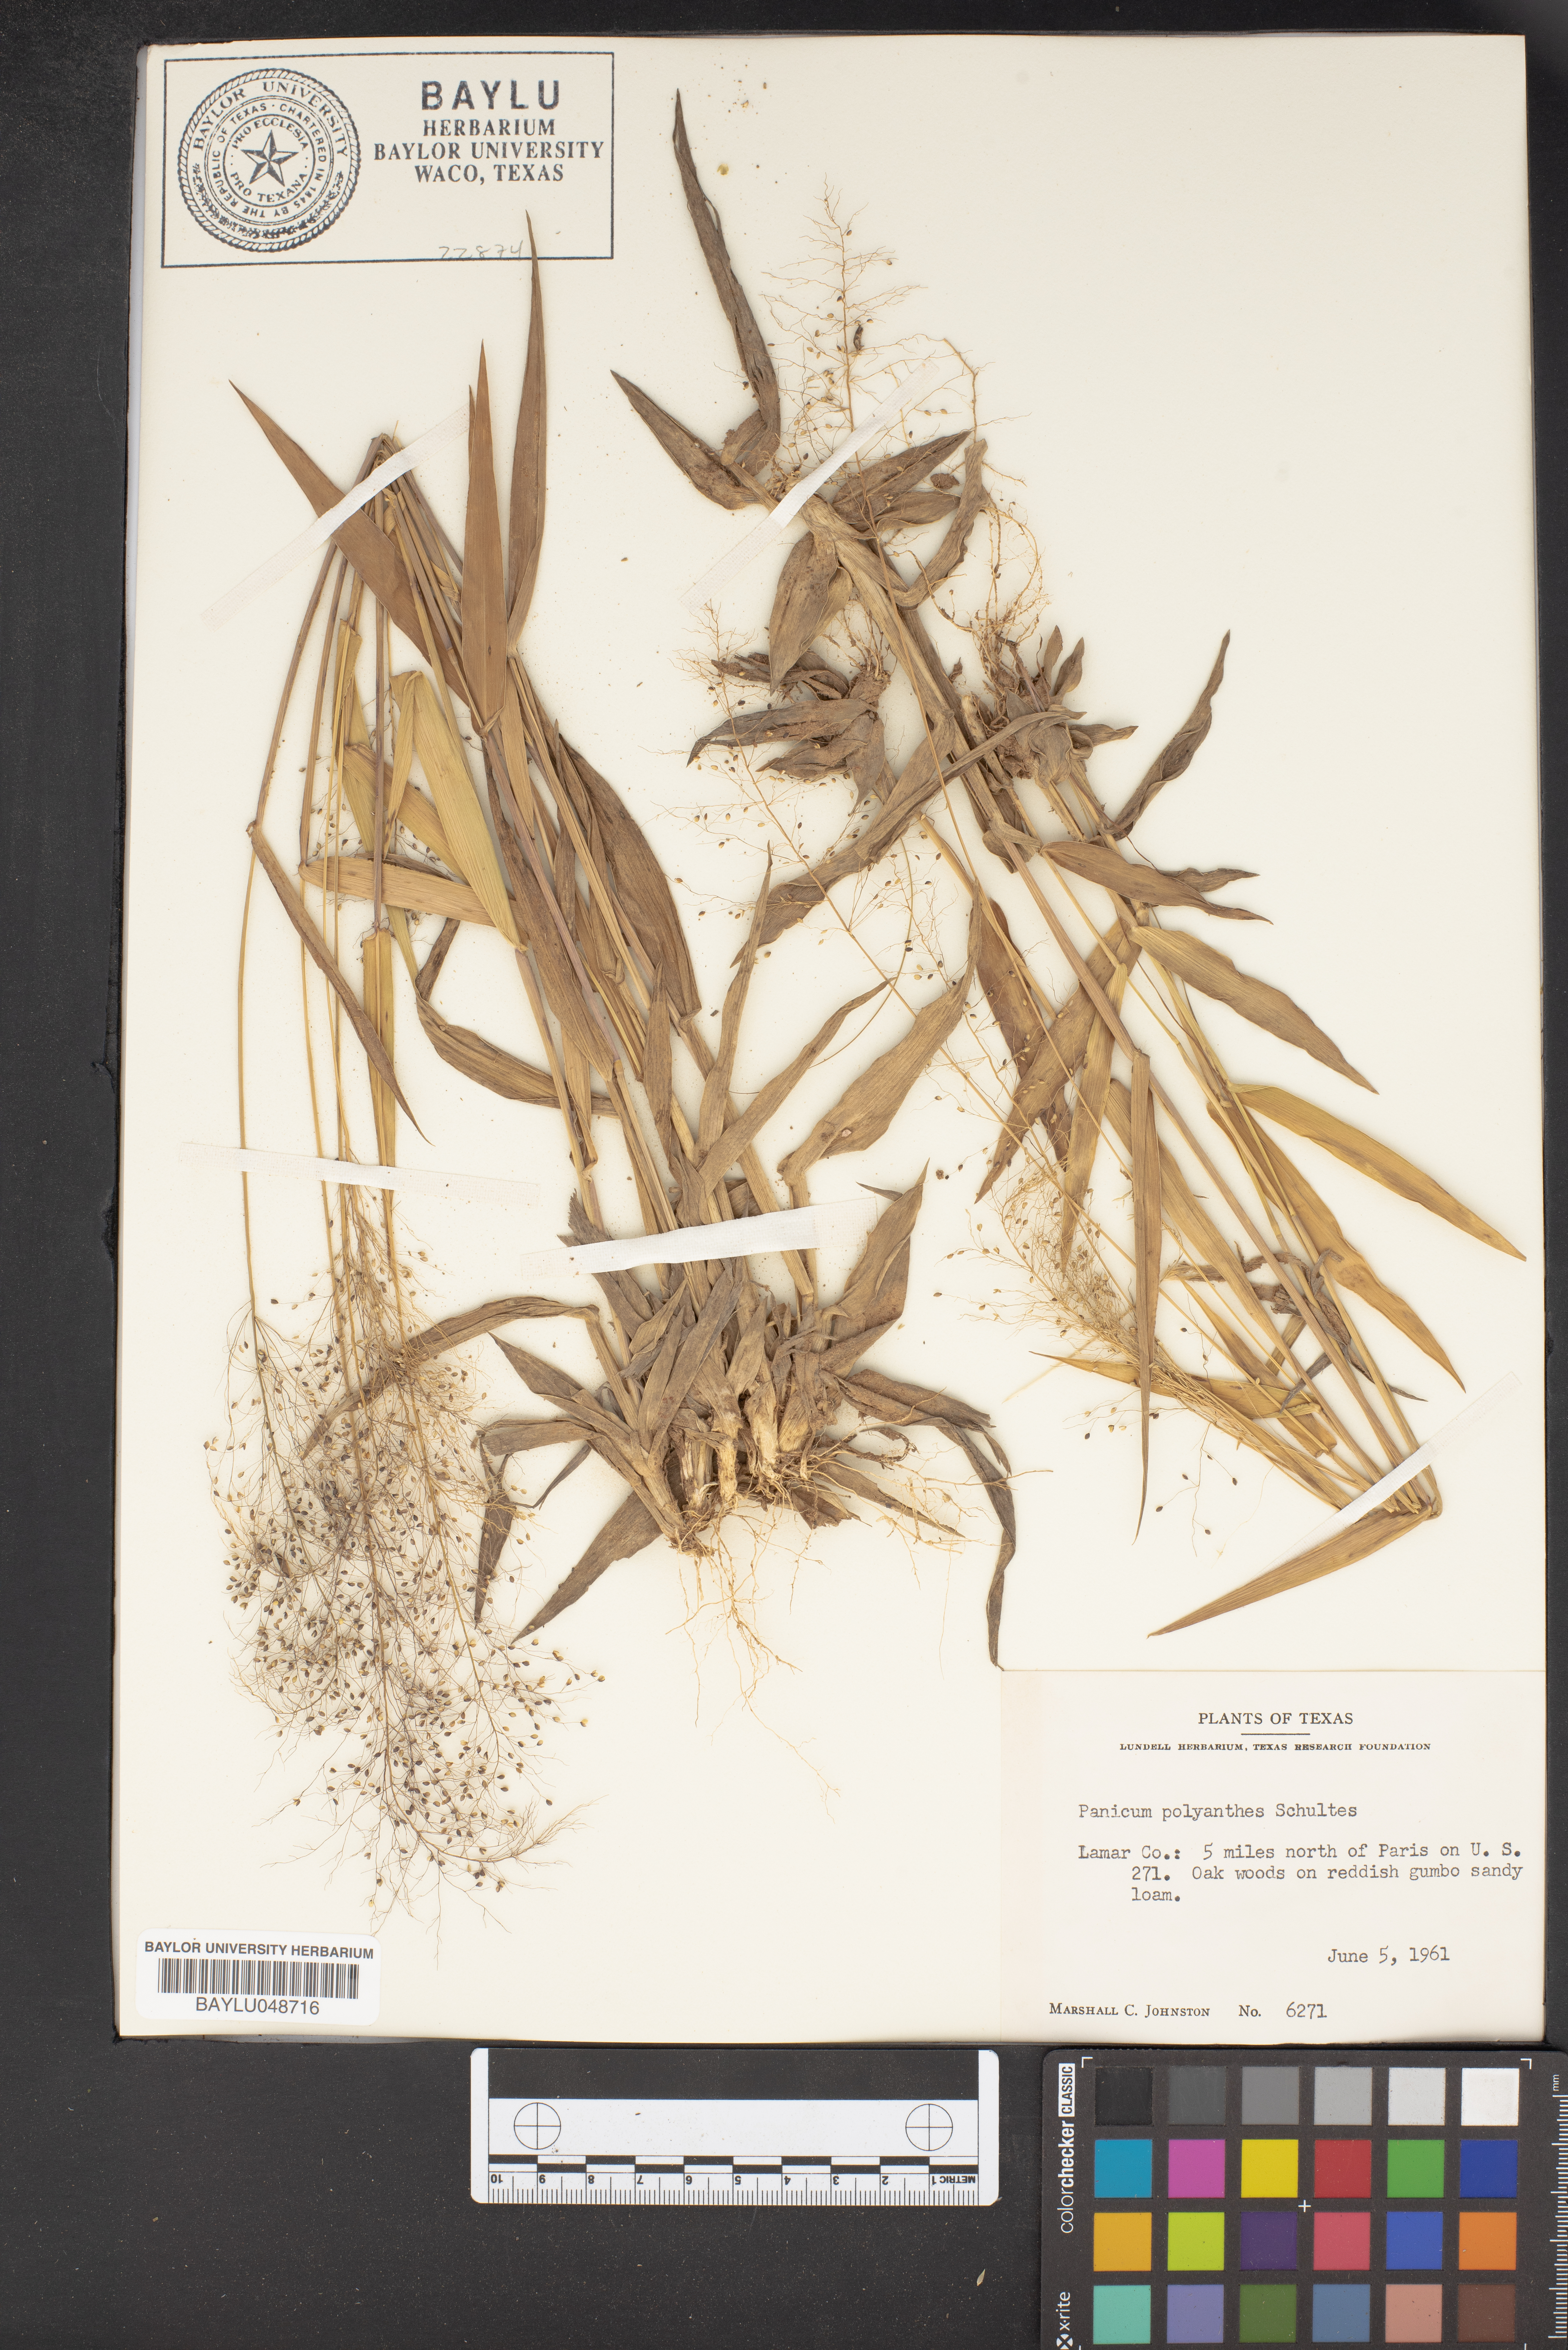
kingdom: Plantae
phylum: Tracheophyta
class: Liliopsida
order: Poales
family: Poaceae
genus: Dichanthelium
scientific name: Dichanthelium polyanthes
